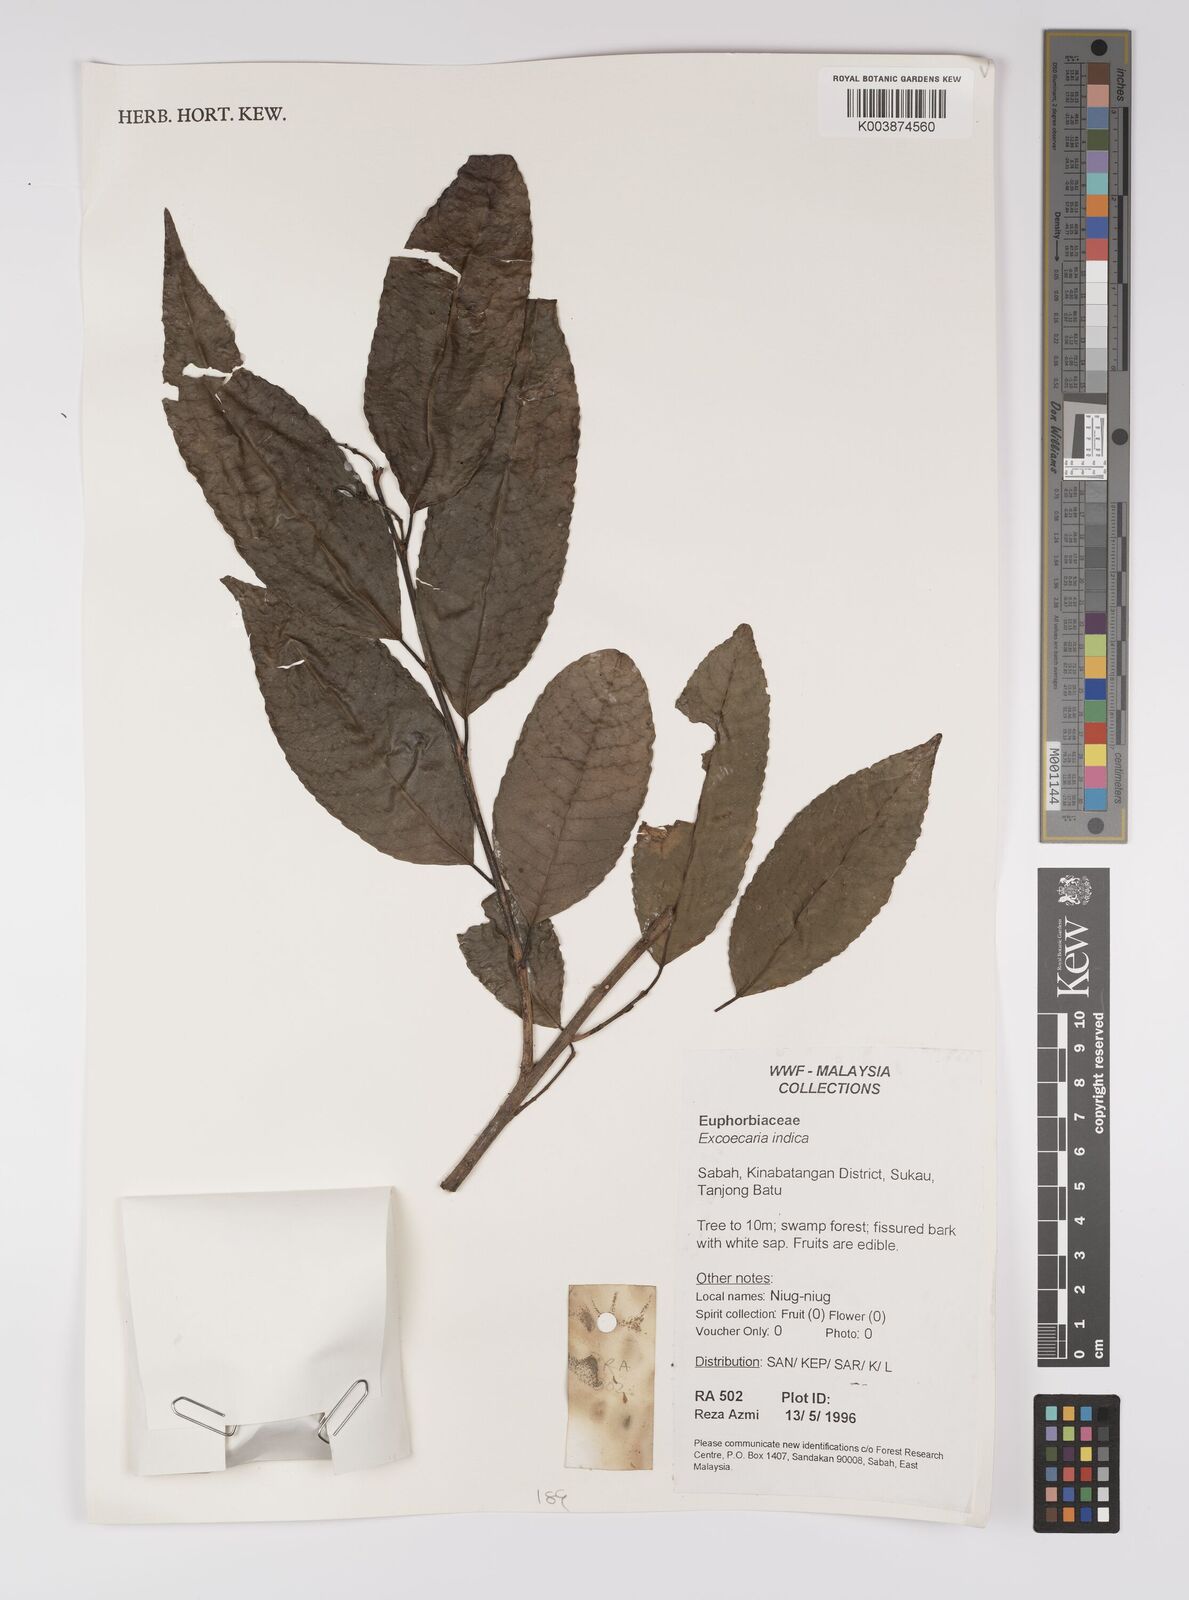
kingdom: Plantae
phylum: Tracheophyta
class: Magnoliopsida
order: Malpighiales
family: Euphorbiaceae
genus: Shirakiopsis
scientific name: Shirakiopsis indica
